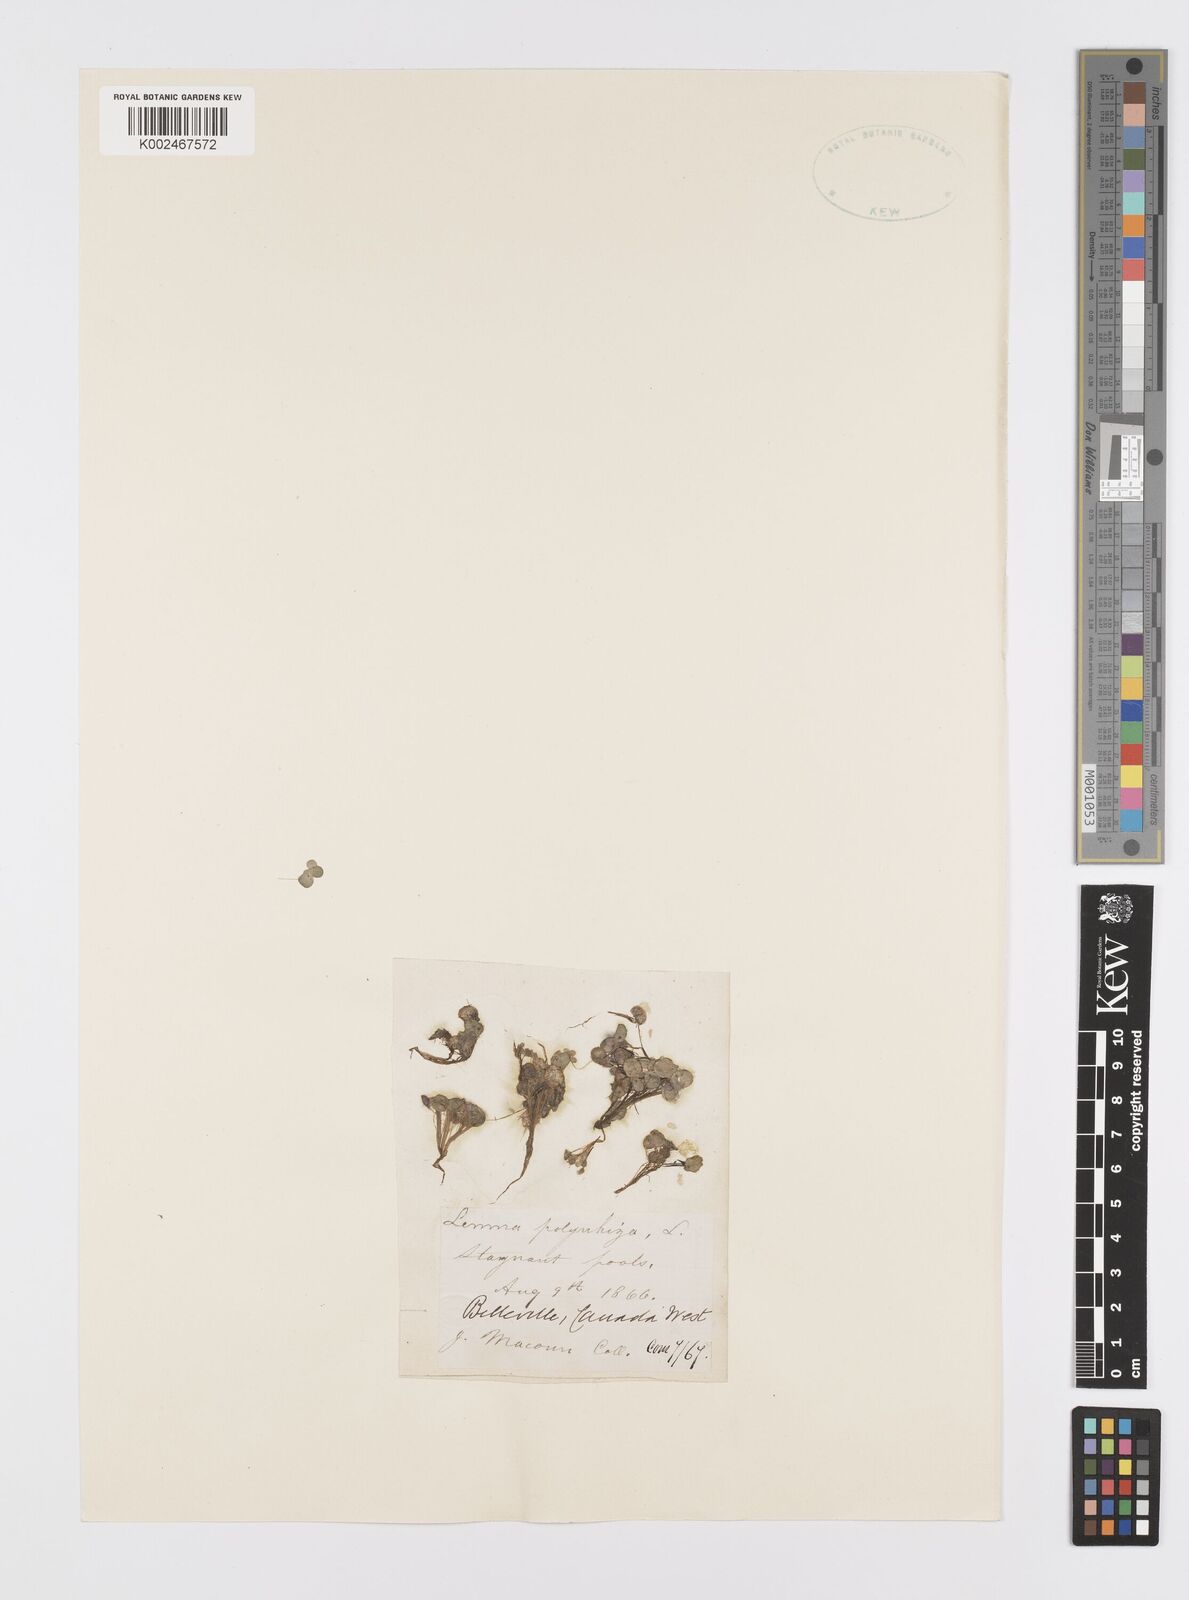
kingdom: Plantae
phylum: Tracheophyta
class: Liliopsida
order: Alismatales
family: Araceae
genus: Spirodela
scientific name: Spirodela polyrhiza
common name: Great duckweed
